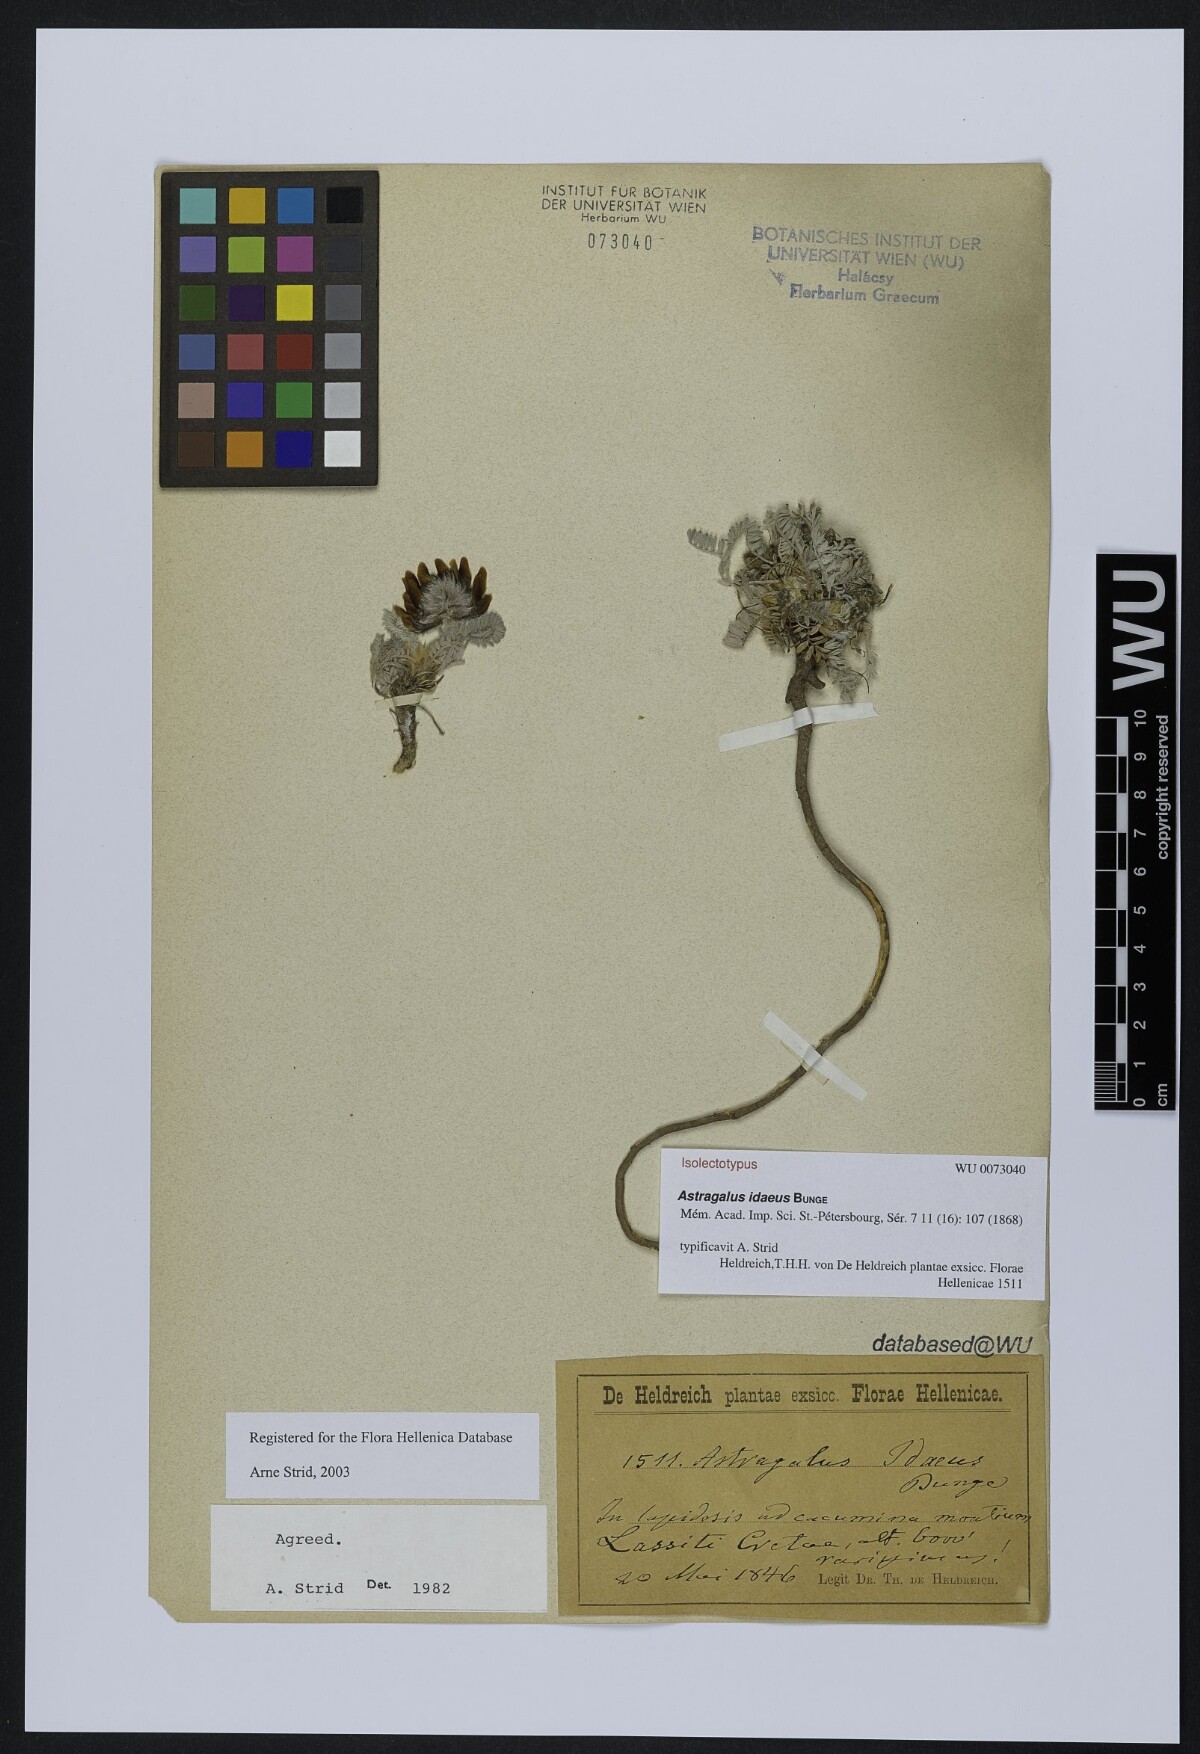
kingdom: Plantae
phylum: Tracheophyta
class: Magnoliopsida
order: Fabales
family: Fabaceae
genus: Astragalus
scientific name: Astragalus idaeus
